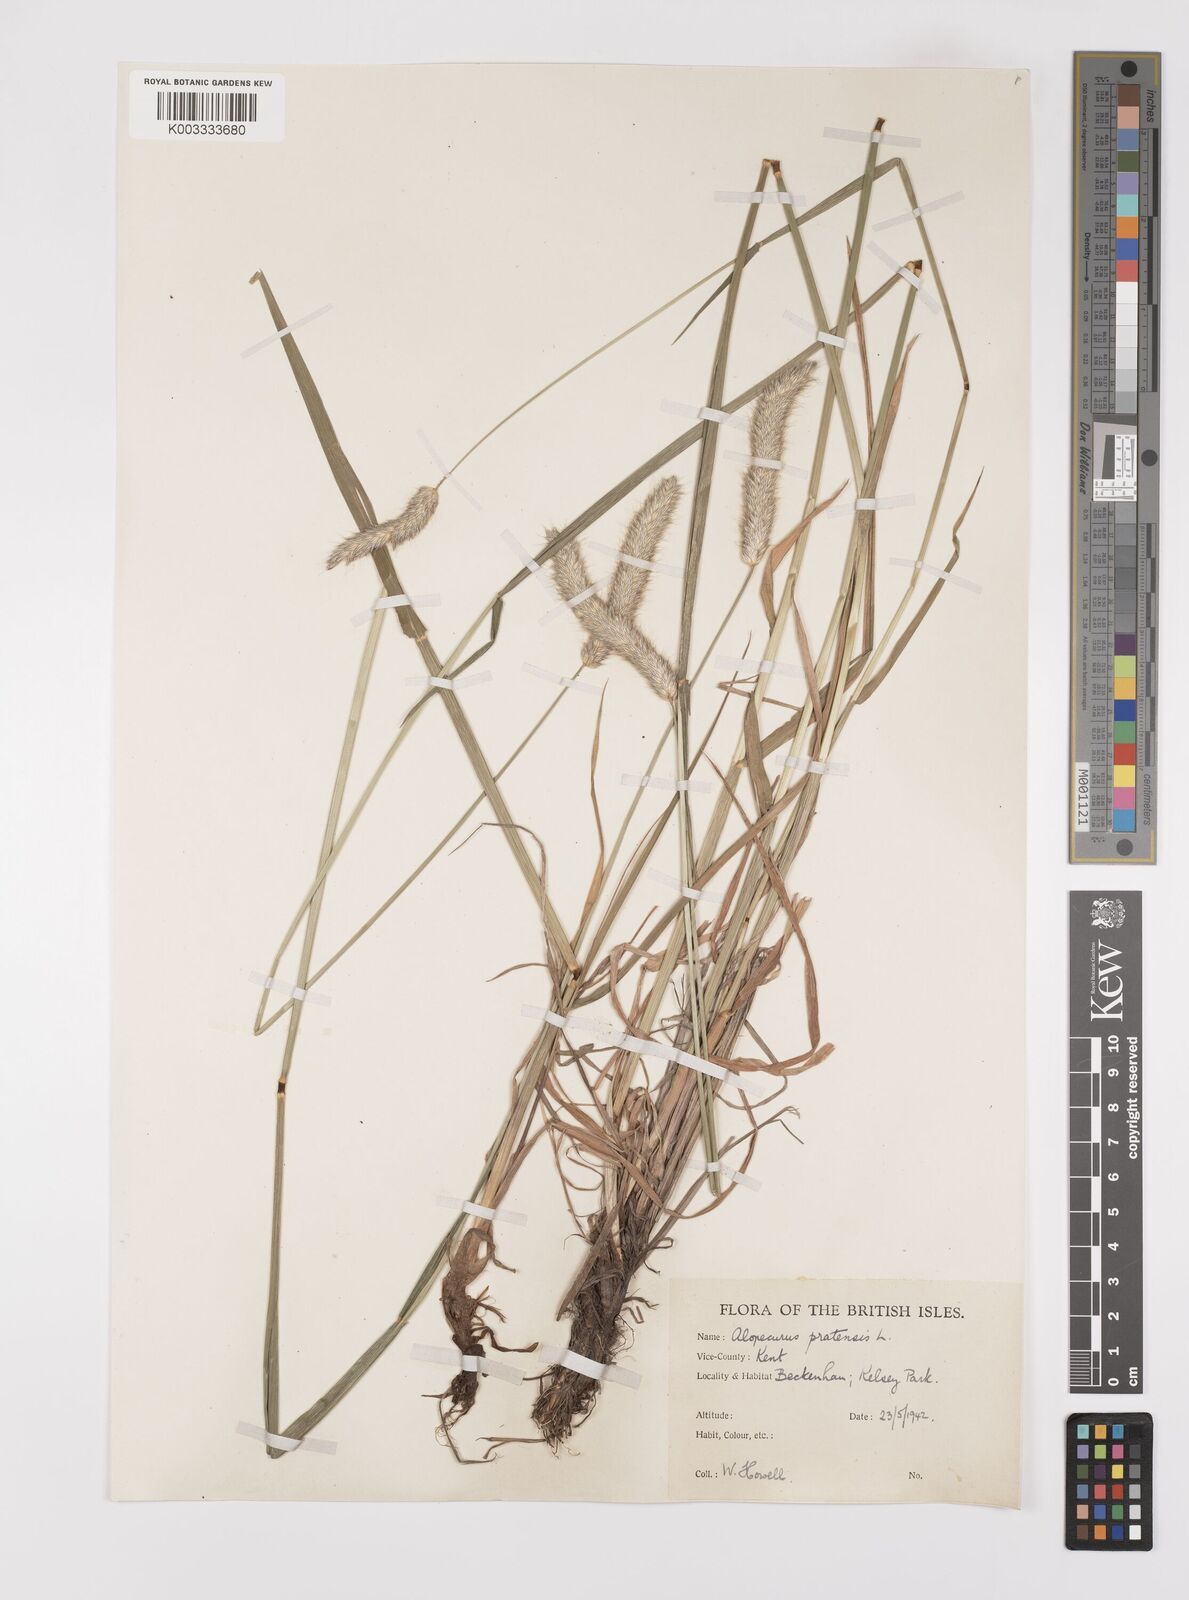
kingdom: Plantae
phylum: Tracheophyta
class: Liliopsida
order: Poales
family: Poaceae
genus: Alopecurus
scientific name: Alopecurus pratensis
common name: Meadow foxtail
